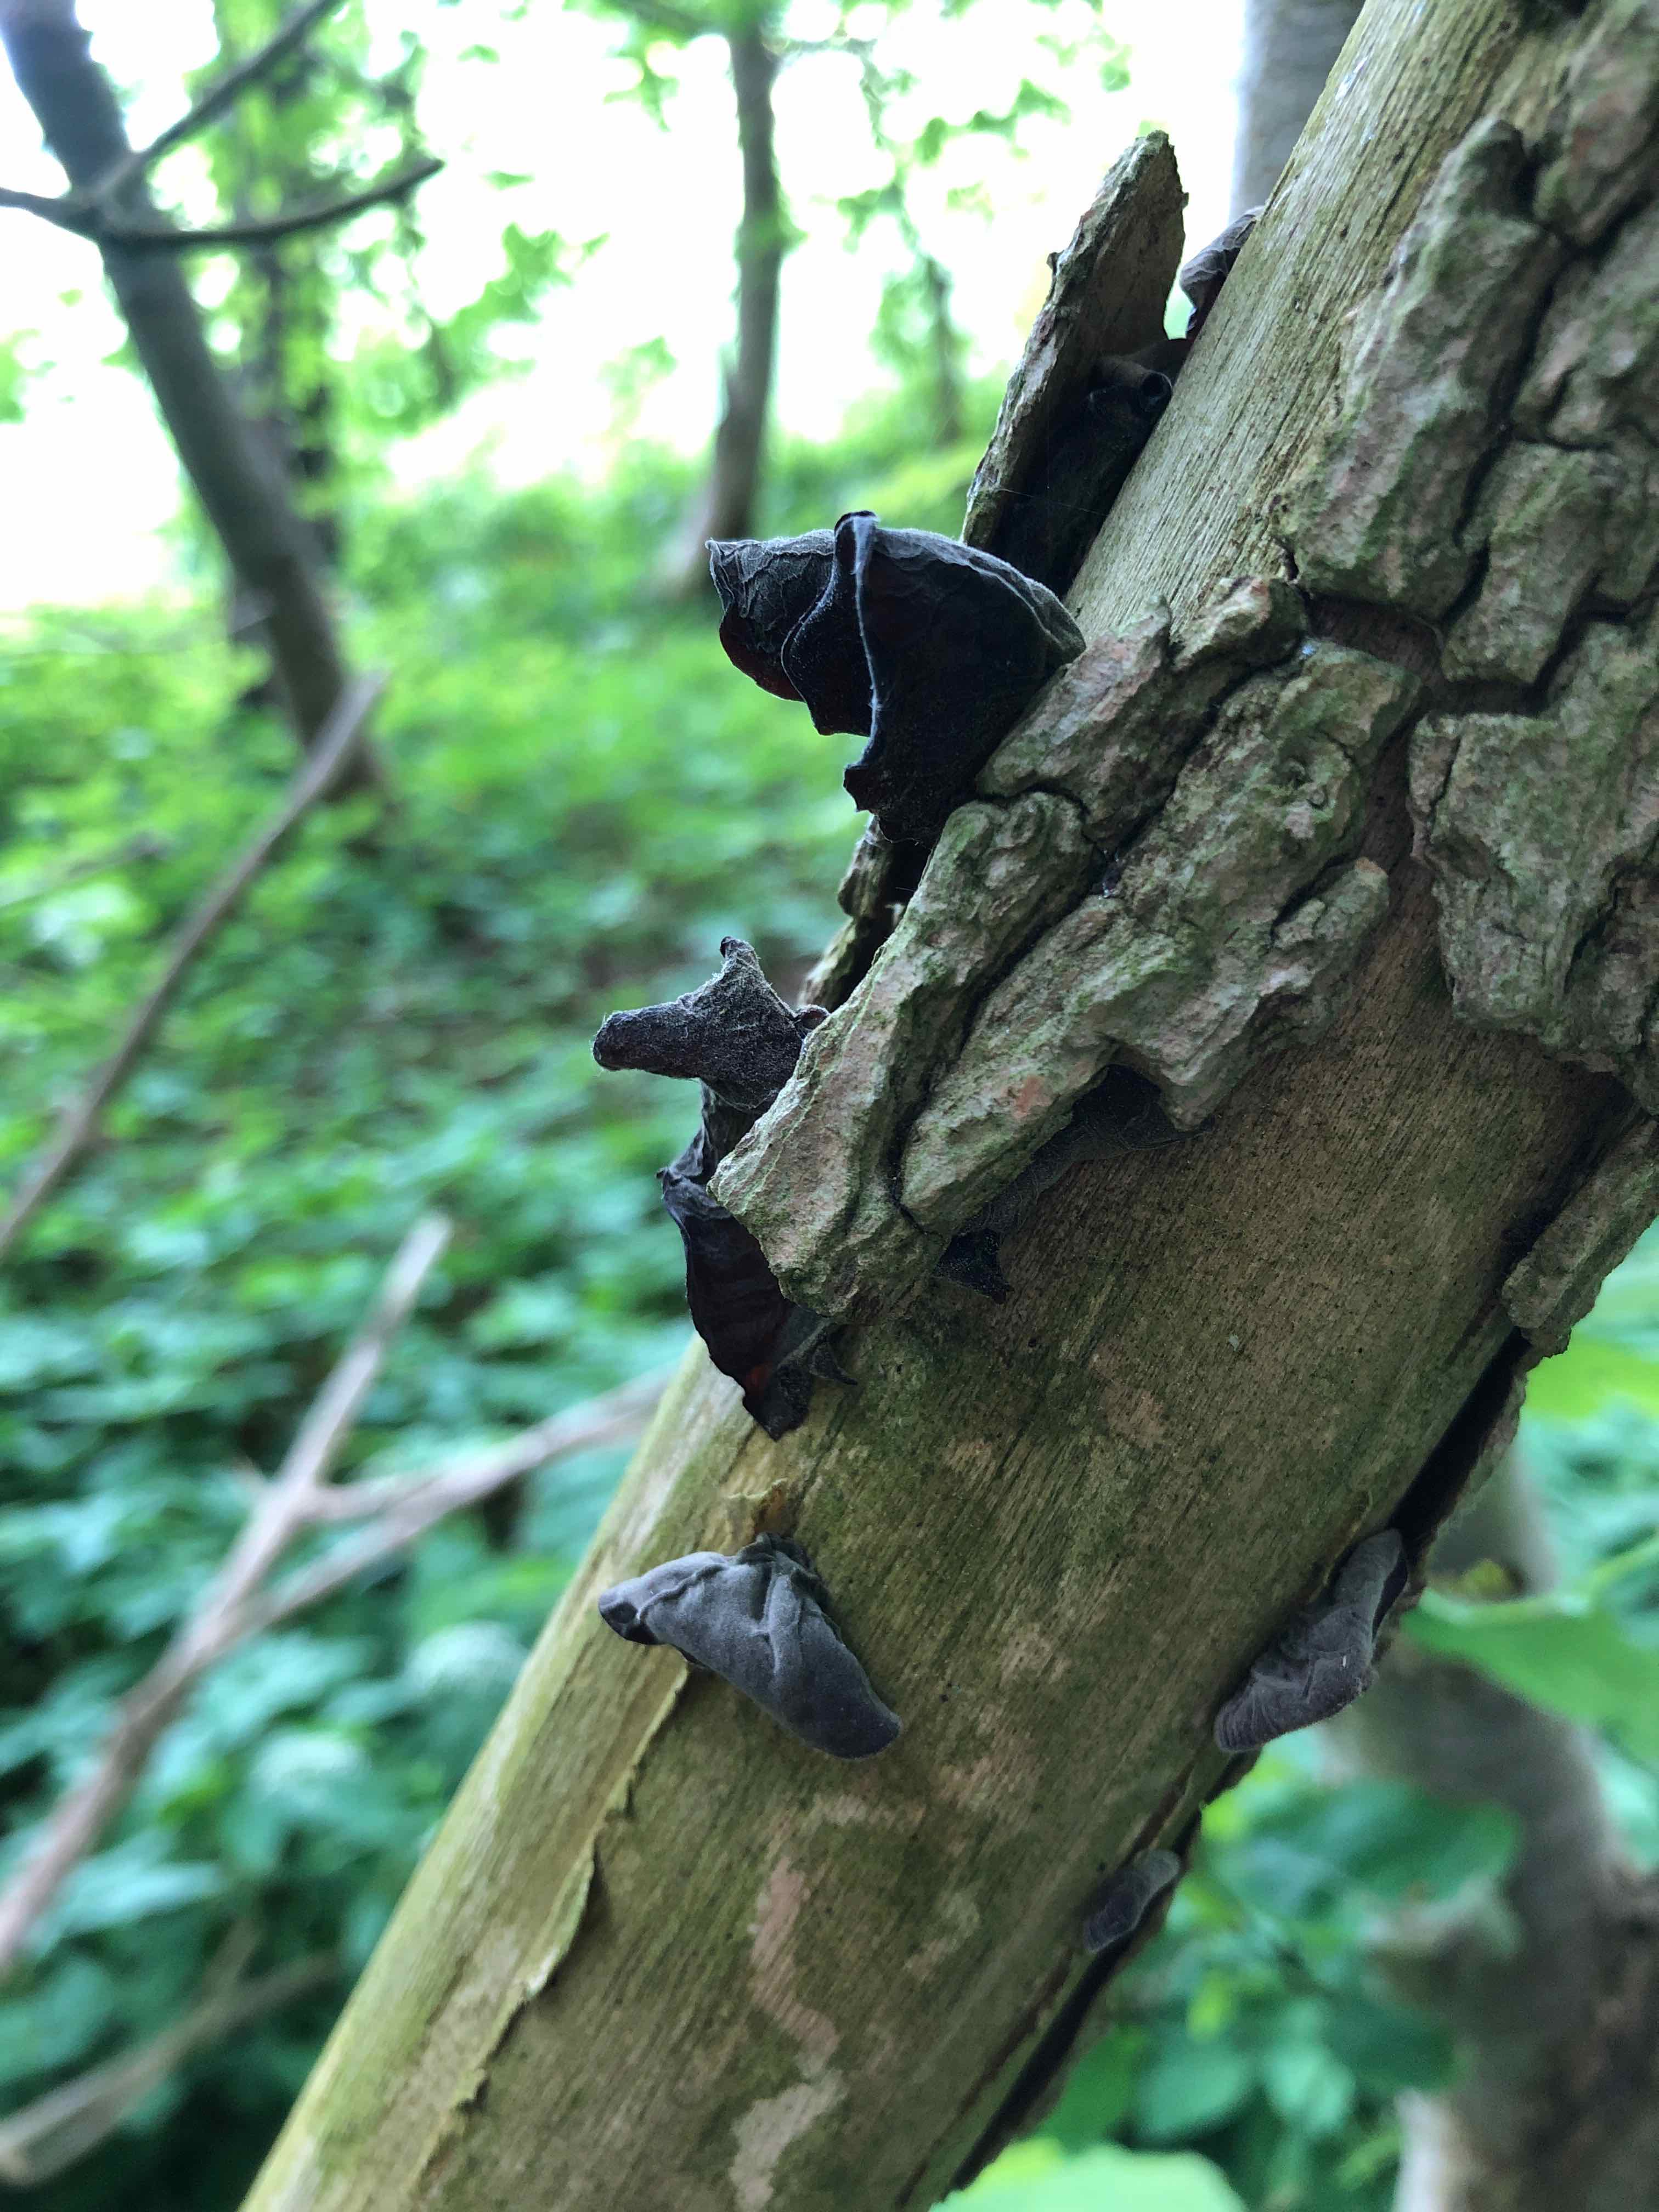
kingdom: Fungi
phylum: Basidiomycota
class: Agaricomycetes
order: Auriculariales
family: Auriculariaceae
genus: Auricularia
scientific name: Auricularia auricula-judae
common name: almindelig judasøre
